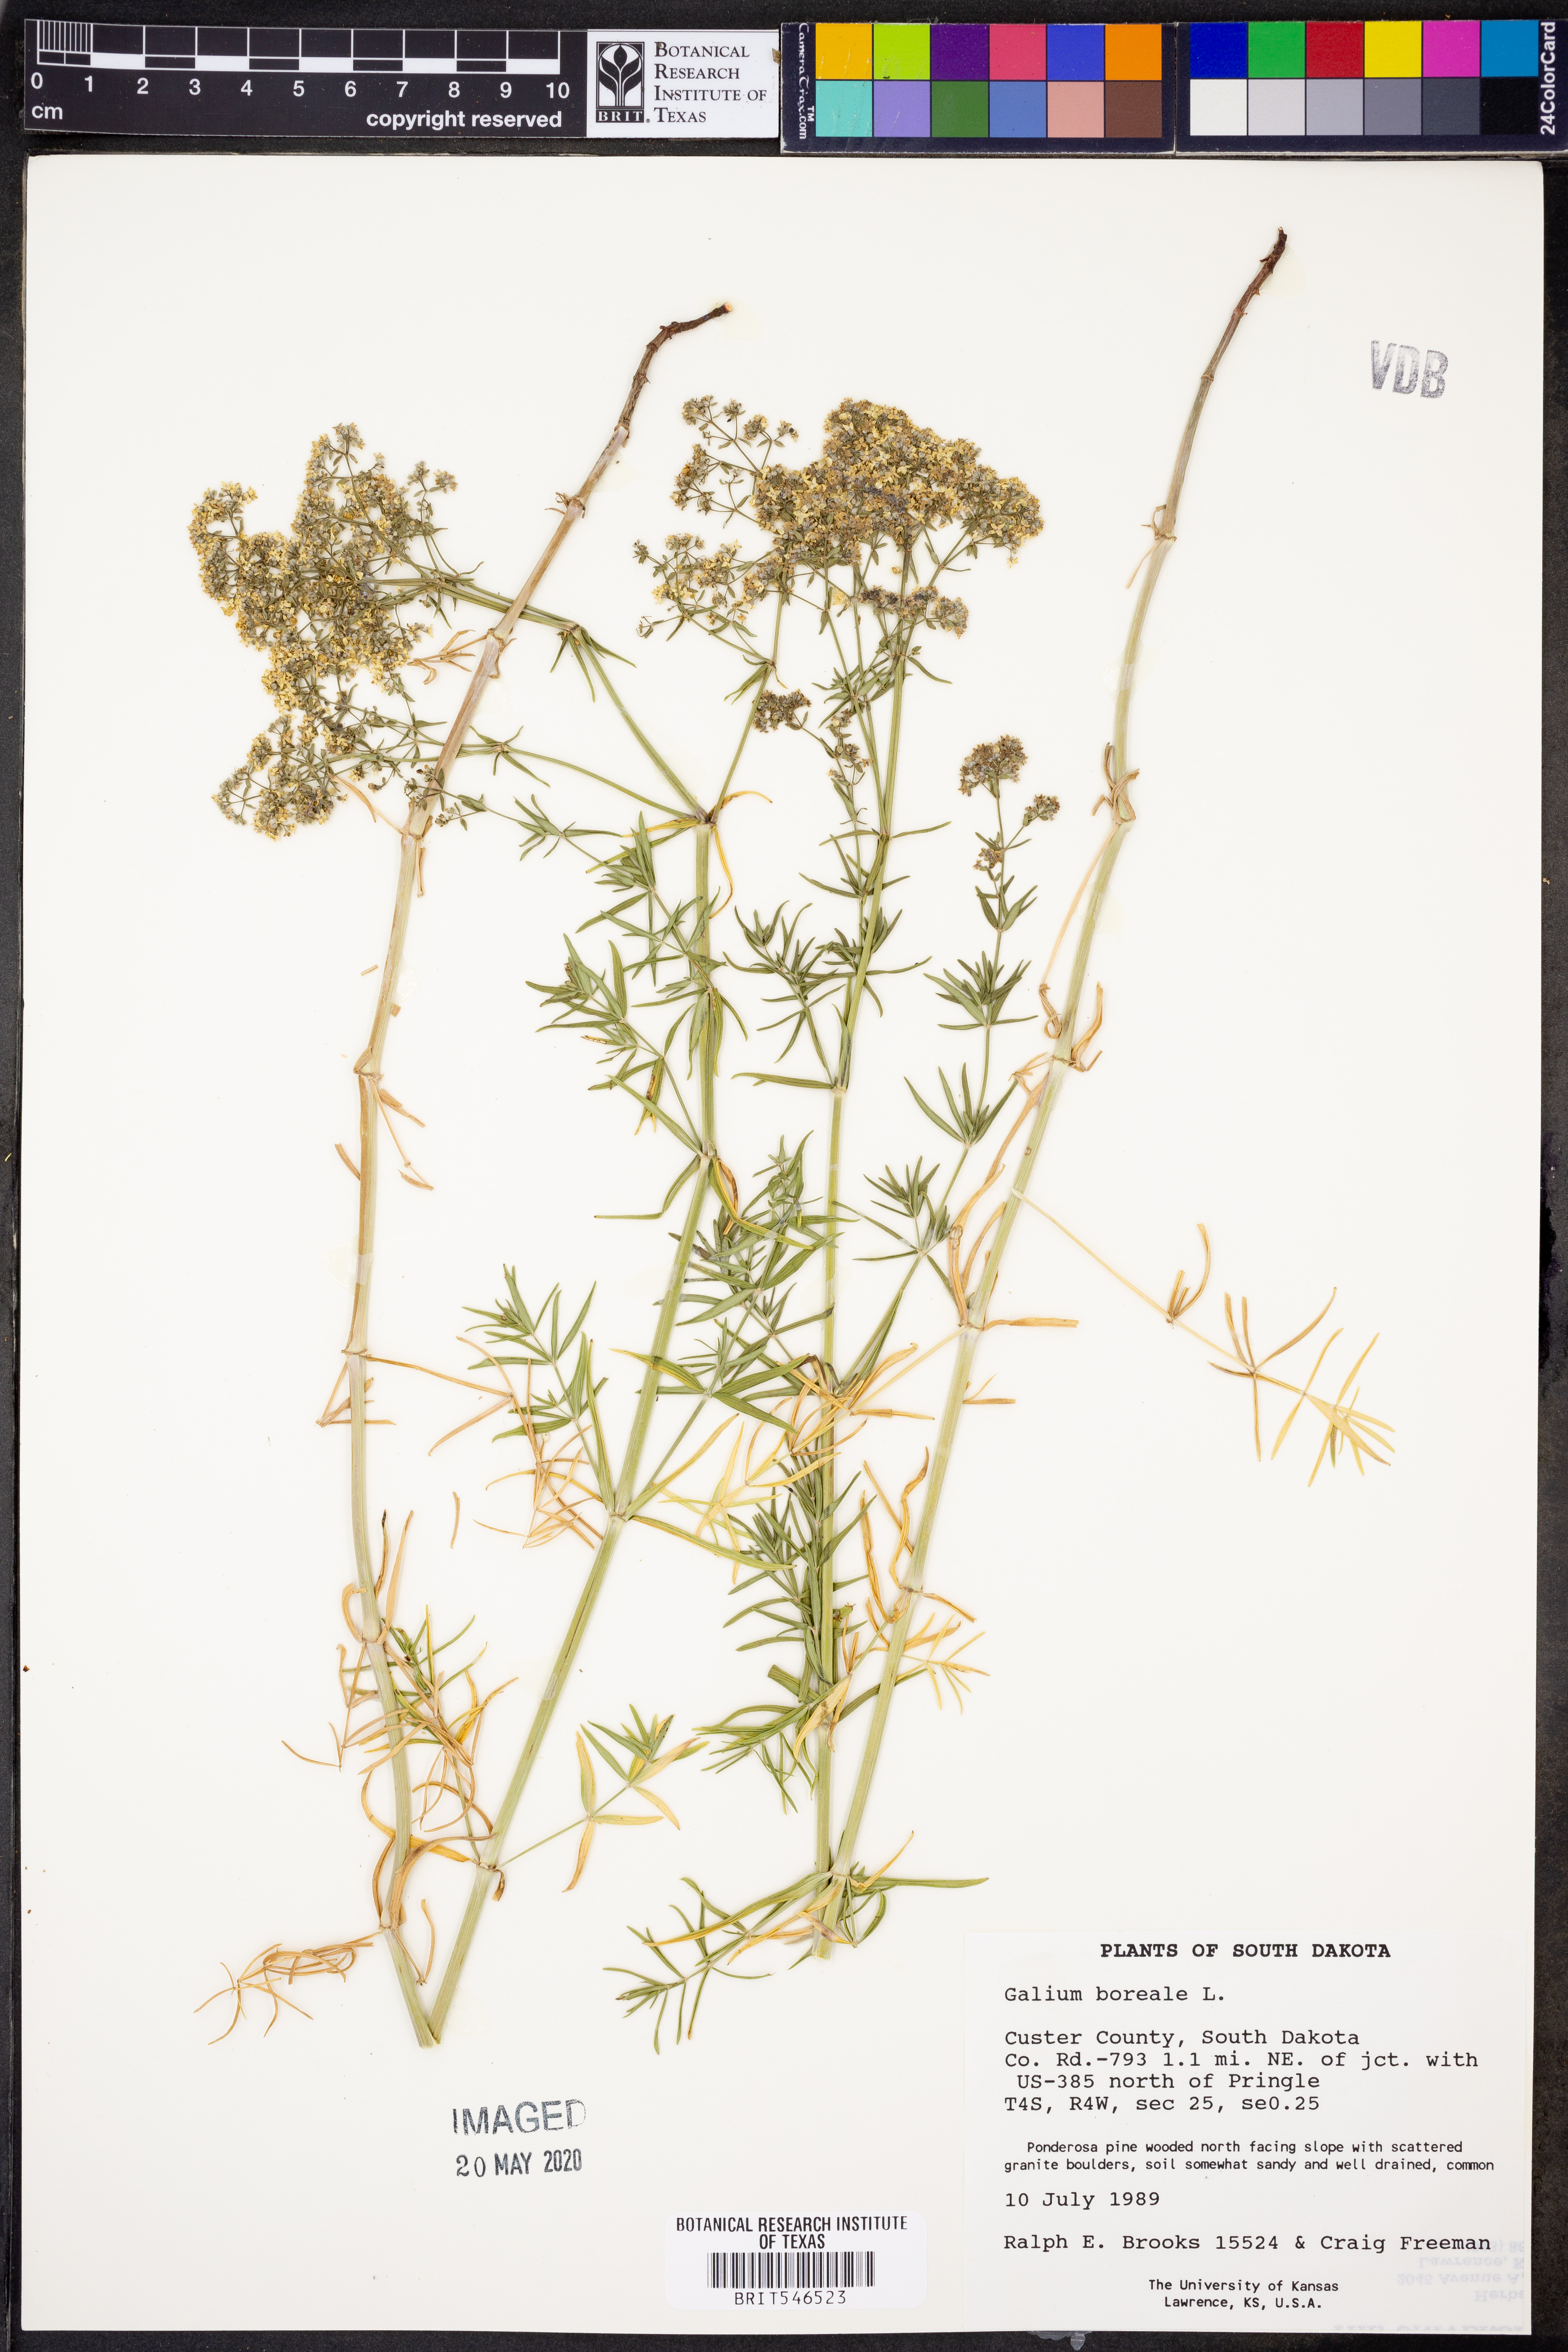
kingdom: Plantae
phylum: Tracheophyta
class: Magnoliopsida
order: Gentianales
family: Rubiaceae
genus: Galium
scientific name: Galium boreale
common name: Northern bedstraw
